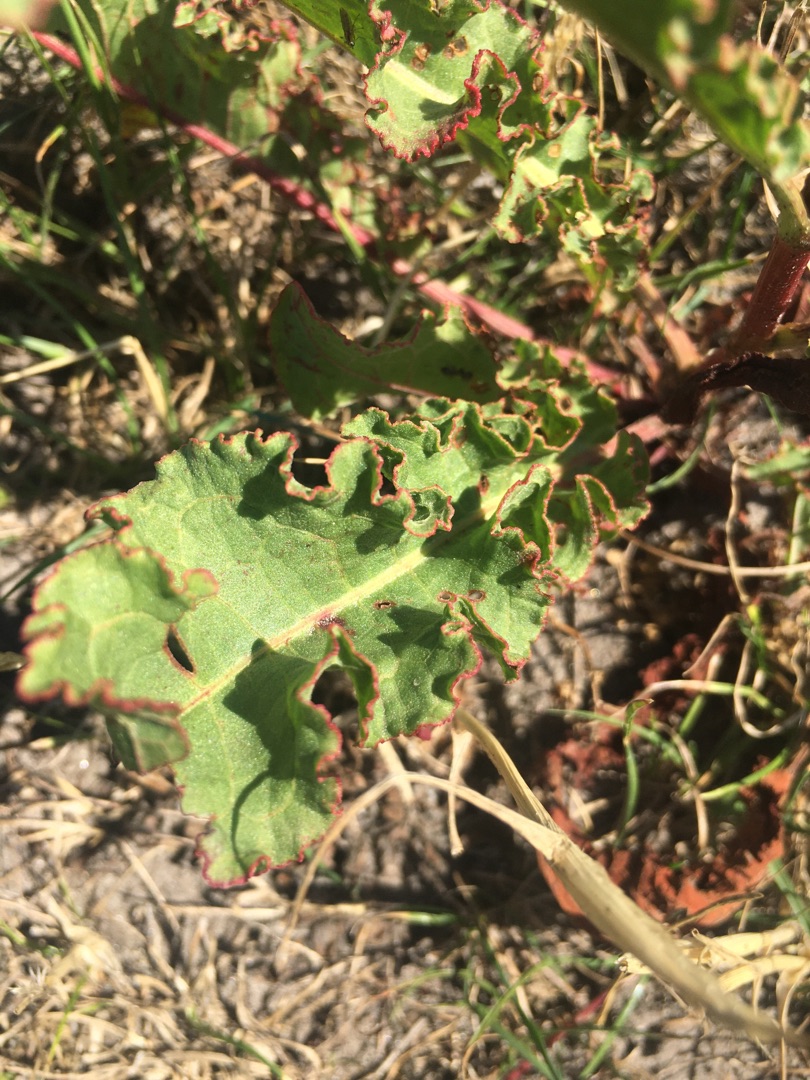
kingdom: Plantae
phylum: Tracheophyta
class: Magnoliopsida
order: Caryophyllales
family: Polygonaceae
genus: Rumex
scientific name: Rumex crispus
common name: Kruset skræppe
